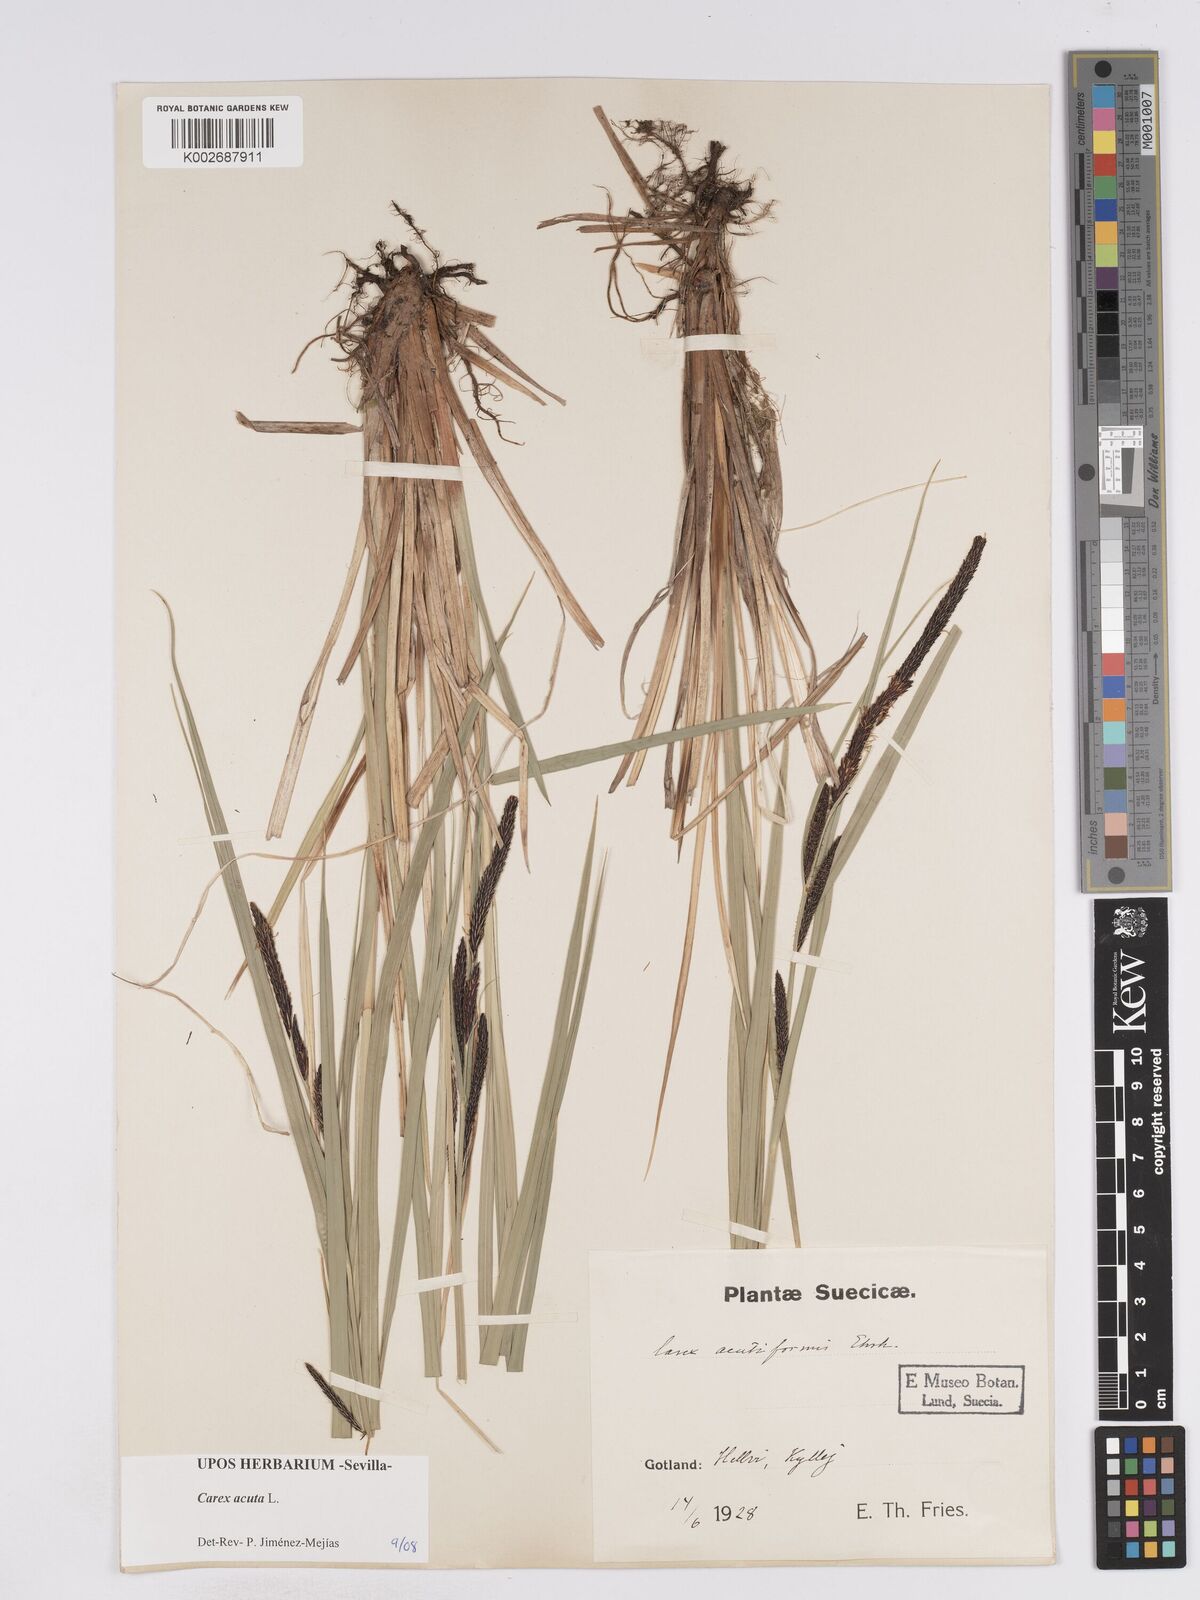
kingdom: Plantae
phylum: Tracheophyta
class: Liliopsida
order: Poales
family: Cyperaceae
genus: Carex
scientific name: Carex acuta
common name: Slender tufted-sedge
